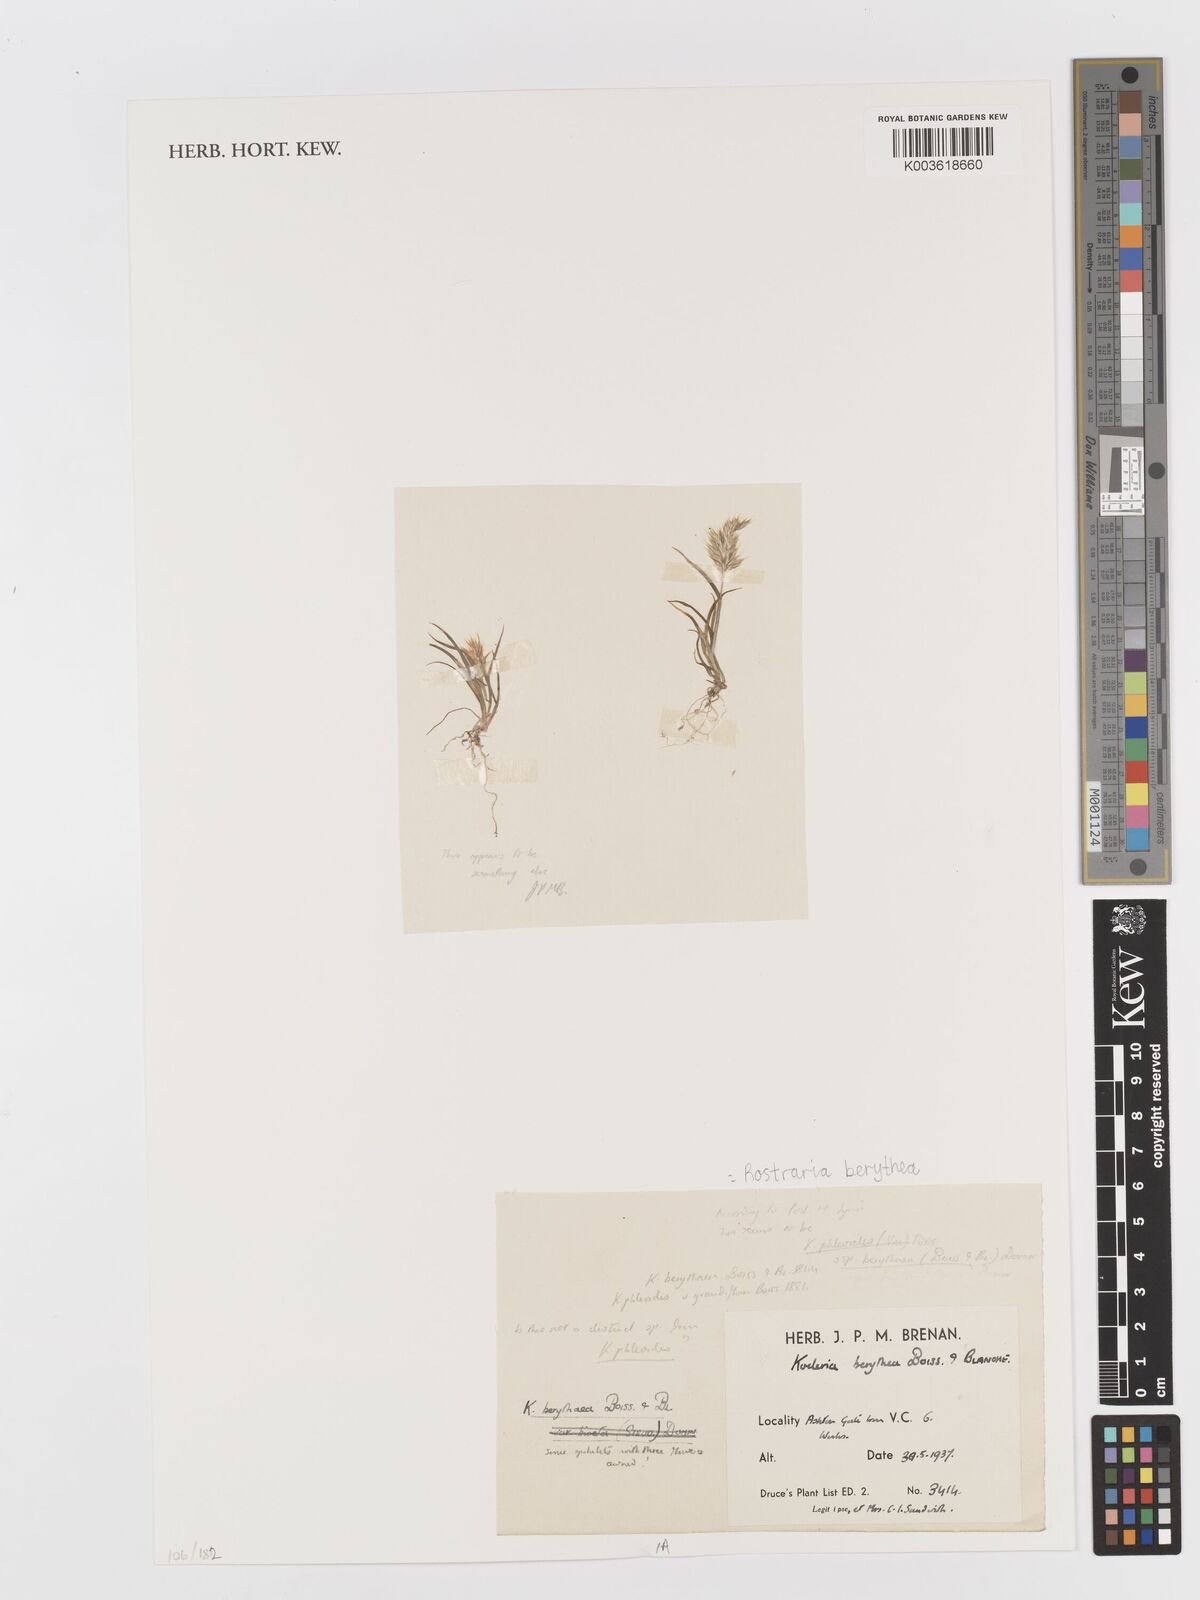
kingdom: Plantae
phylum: Tracheophyta
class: Liliopsida
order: Poales
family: Poaceae
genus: Rostraria
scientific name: Rostraria smyrnaea
